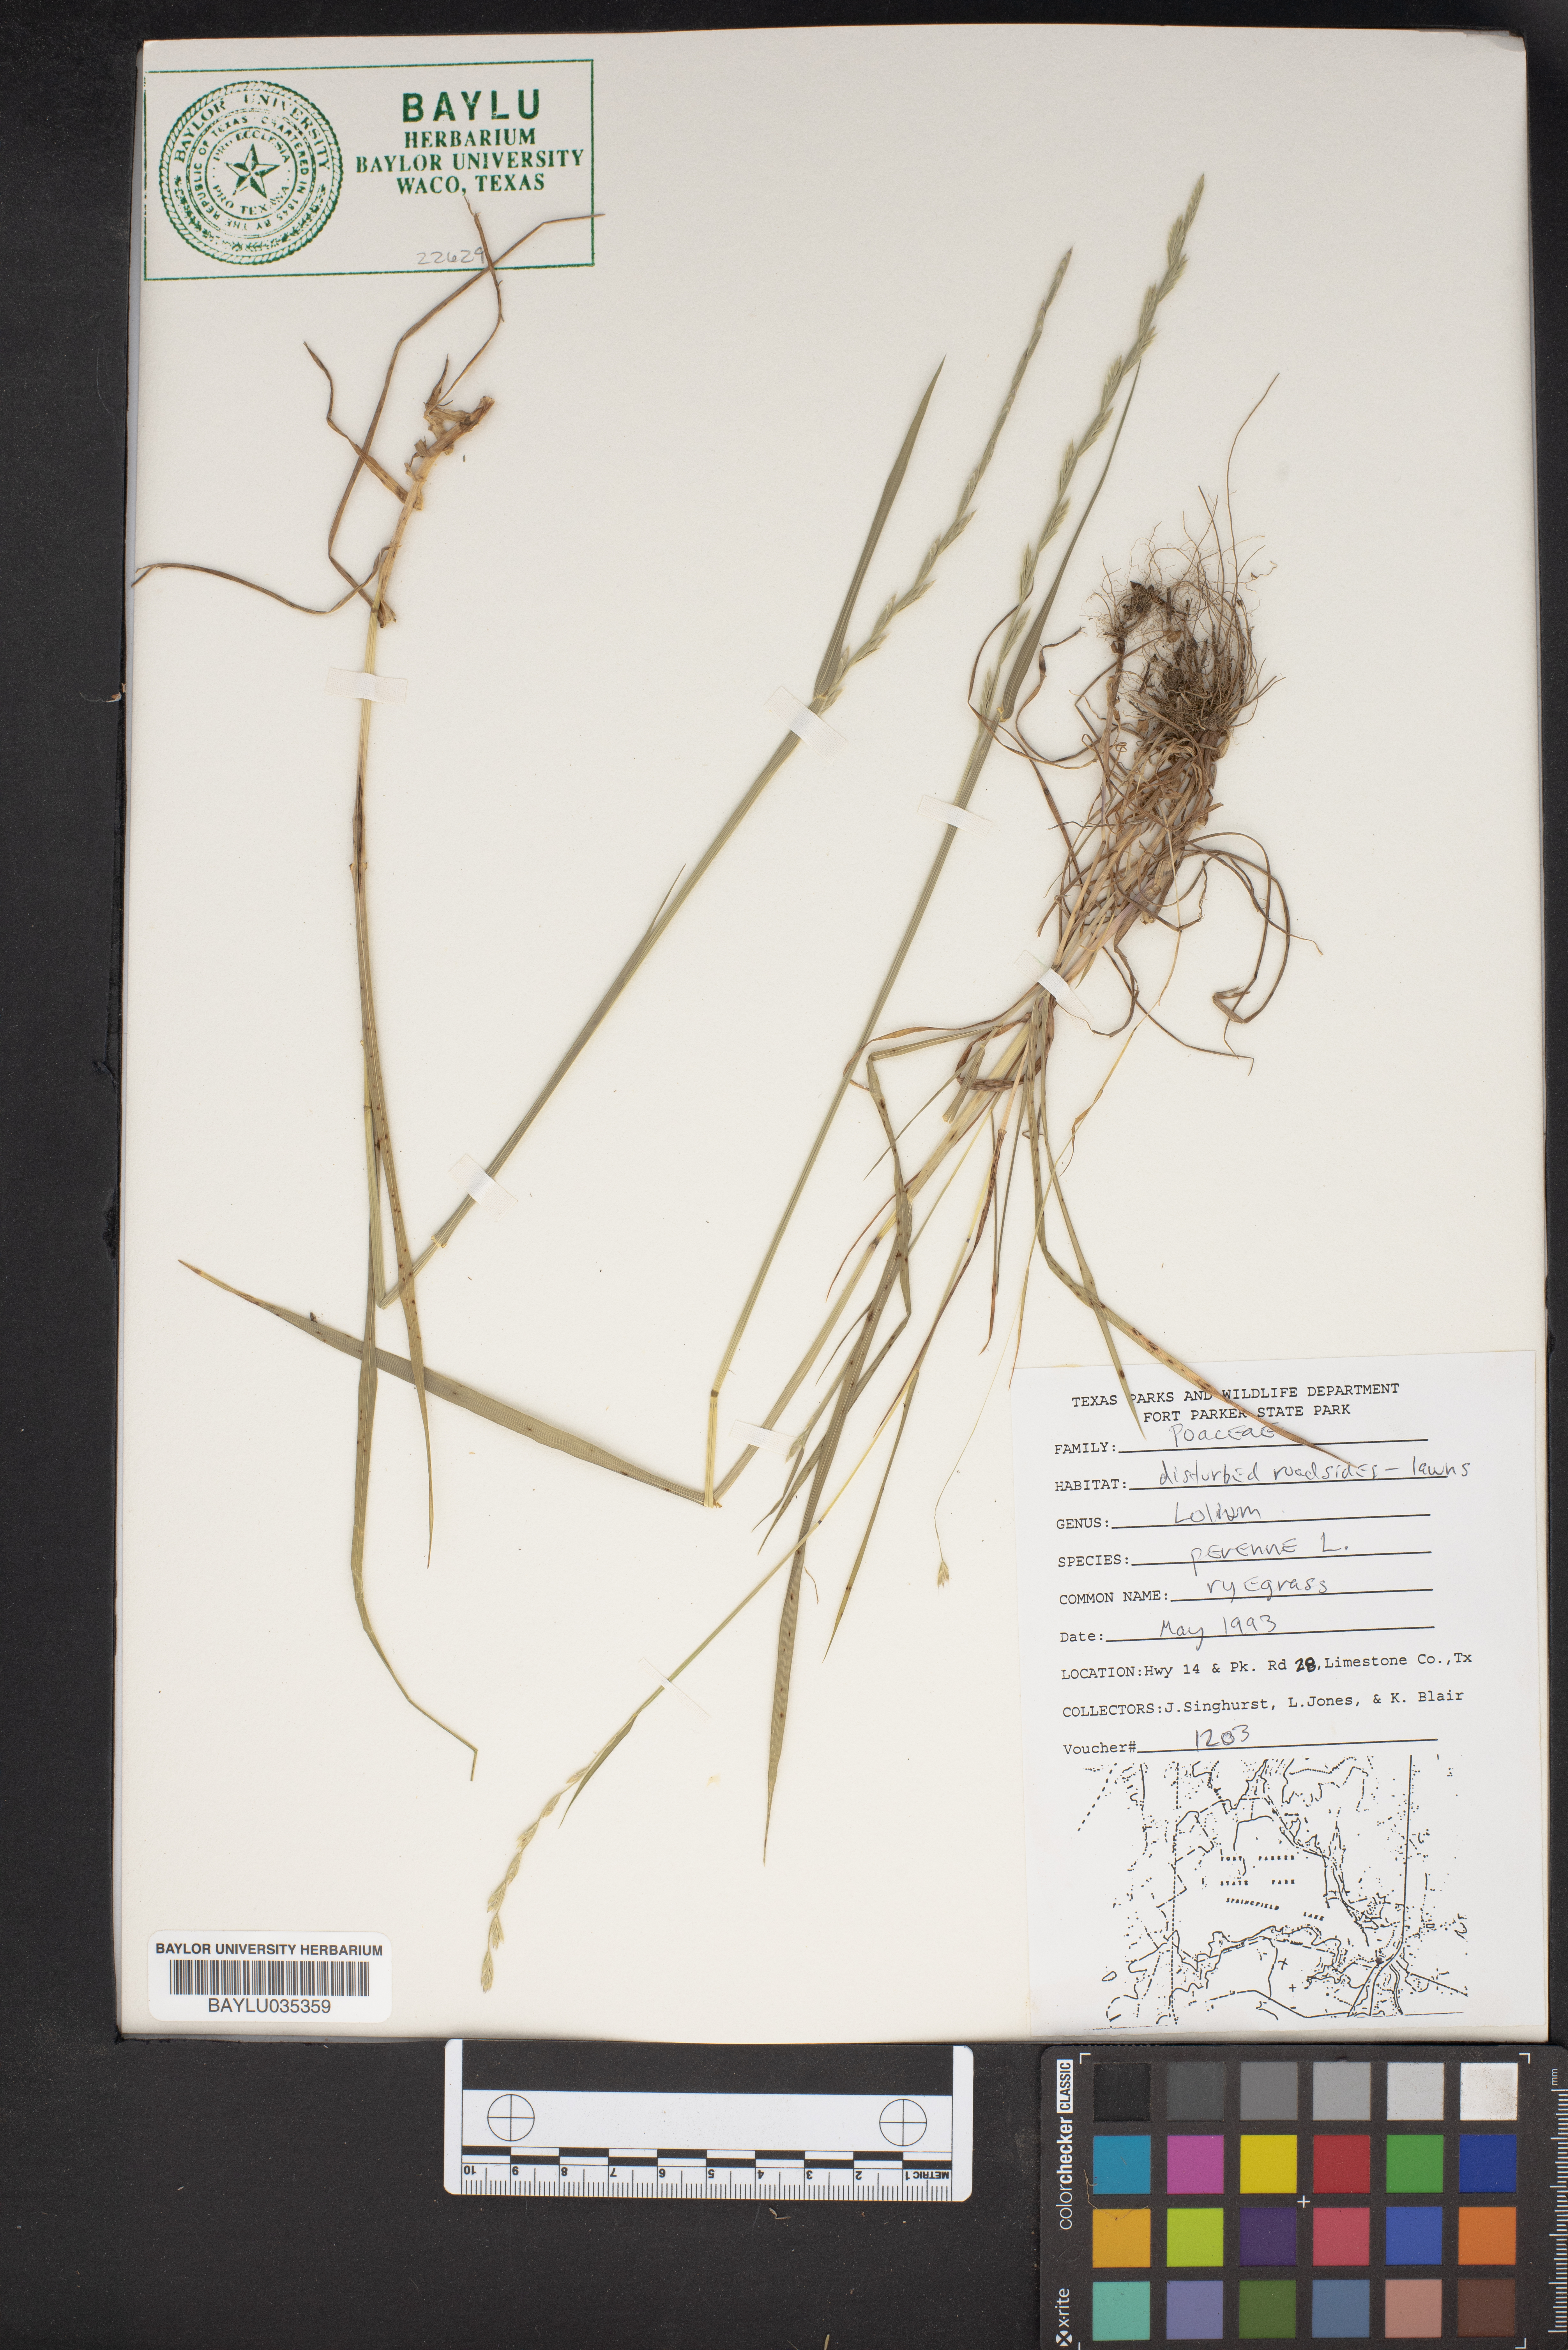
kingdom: Plantae
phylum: Tracheophyta
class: Liliopsida
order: Poales
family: Poaceae
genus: Lolium
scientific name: Lolium perenne
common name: Perennial ryegrass
